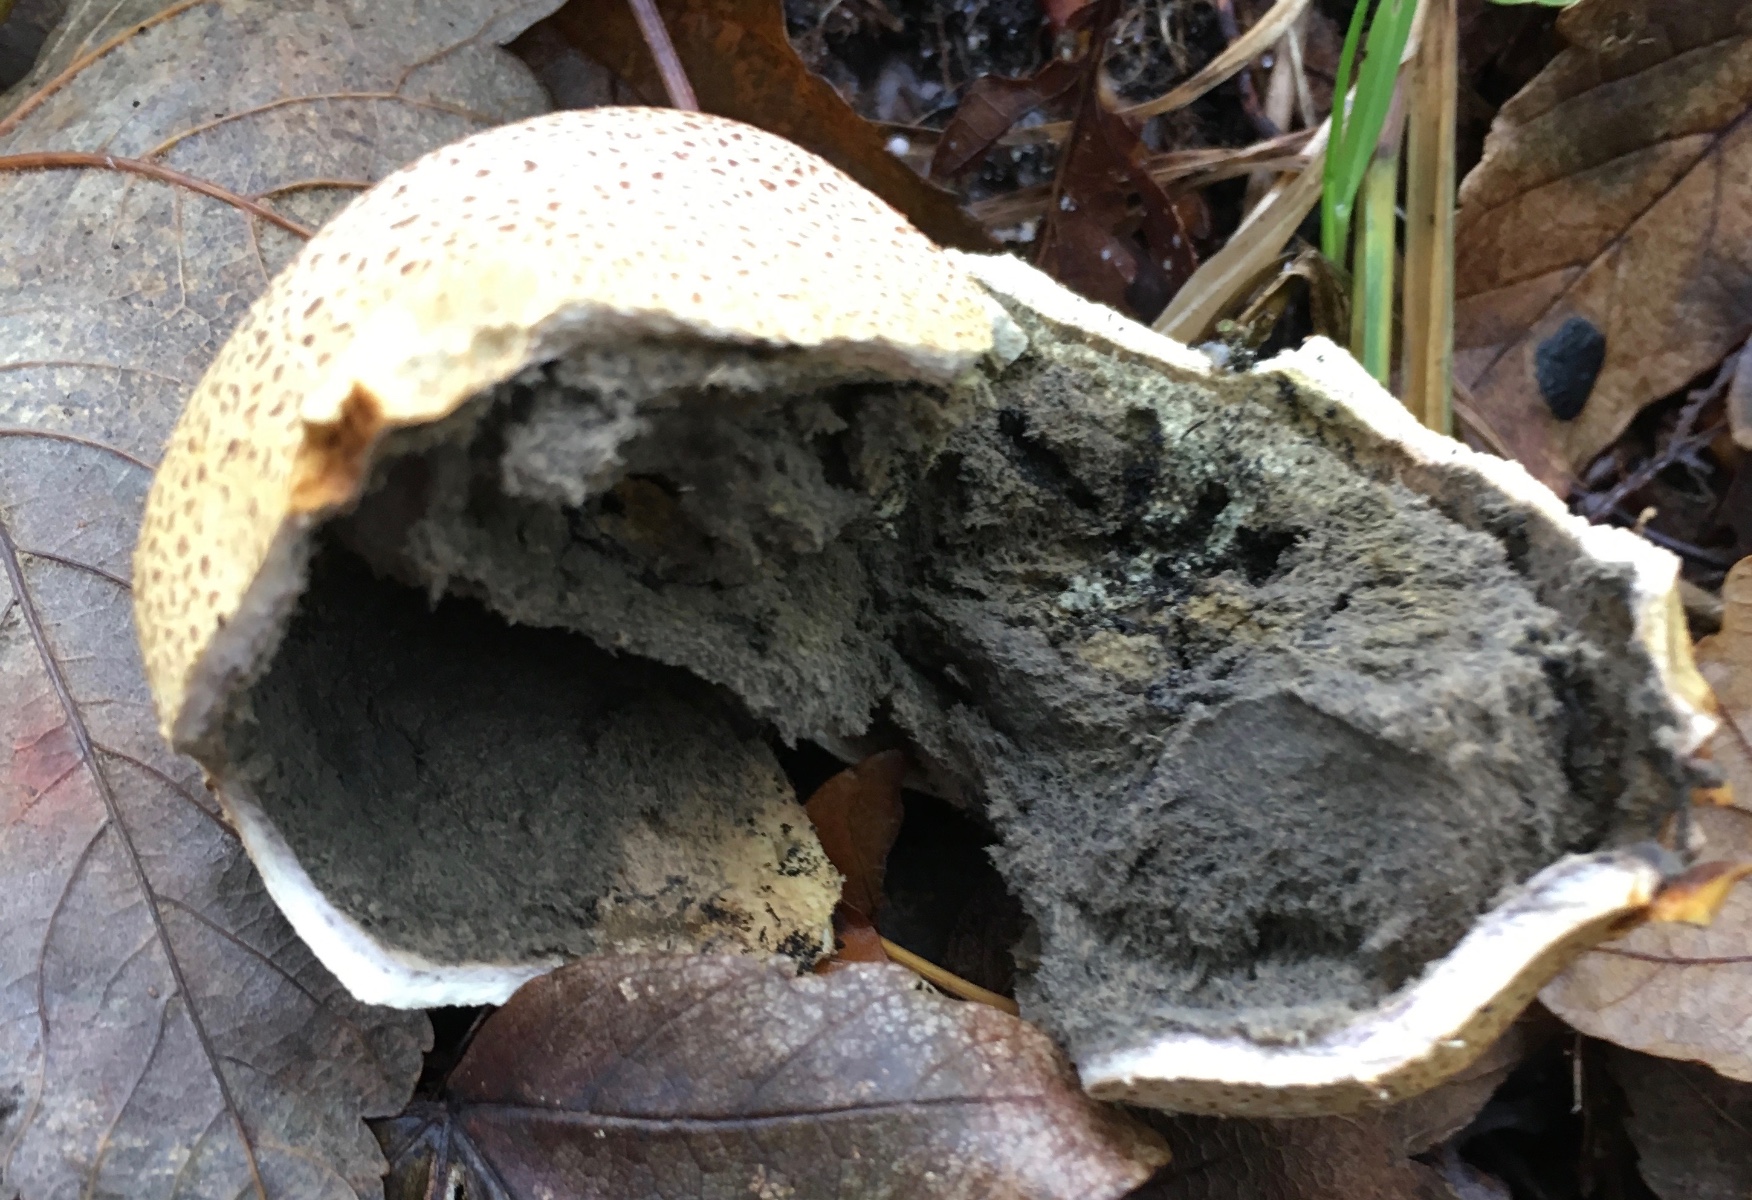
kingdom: Fungi
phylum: Basidiomycota
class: Agaricomycetes
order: Boletales
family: Sclerodermataceae
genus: Scleroderma
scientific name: Scleroderma citrinum
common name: almindelig bruskbold
